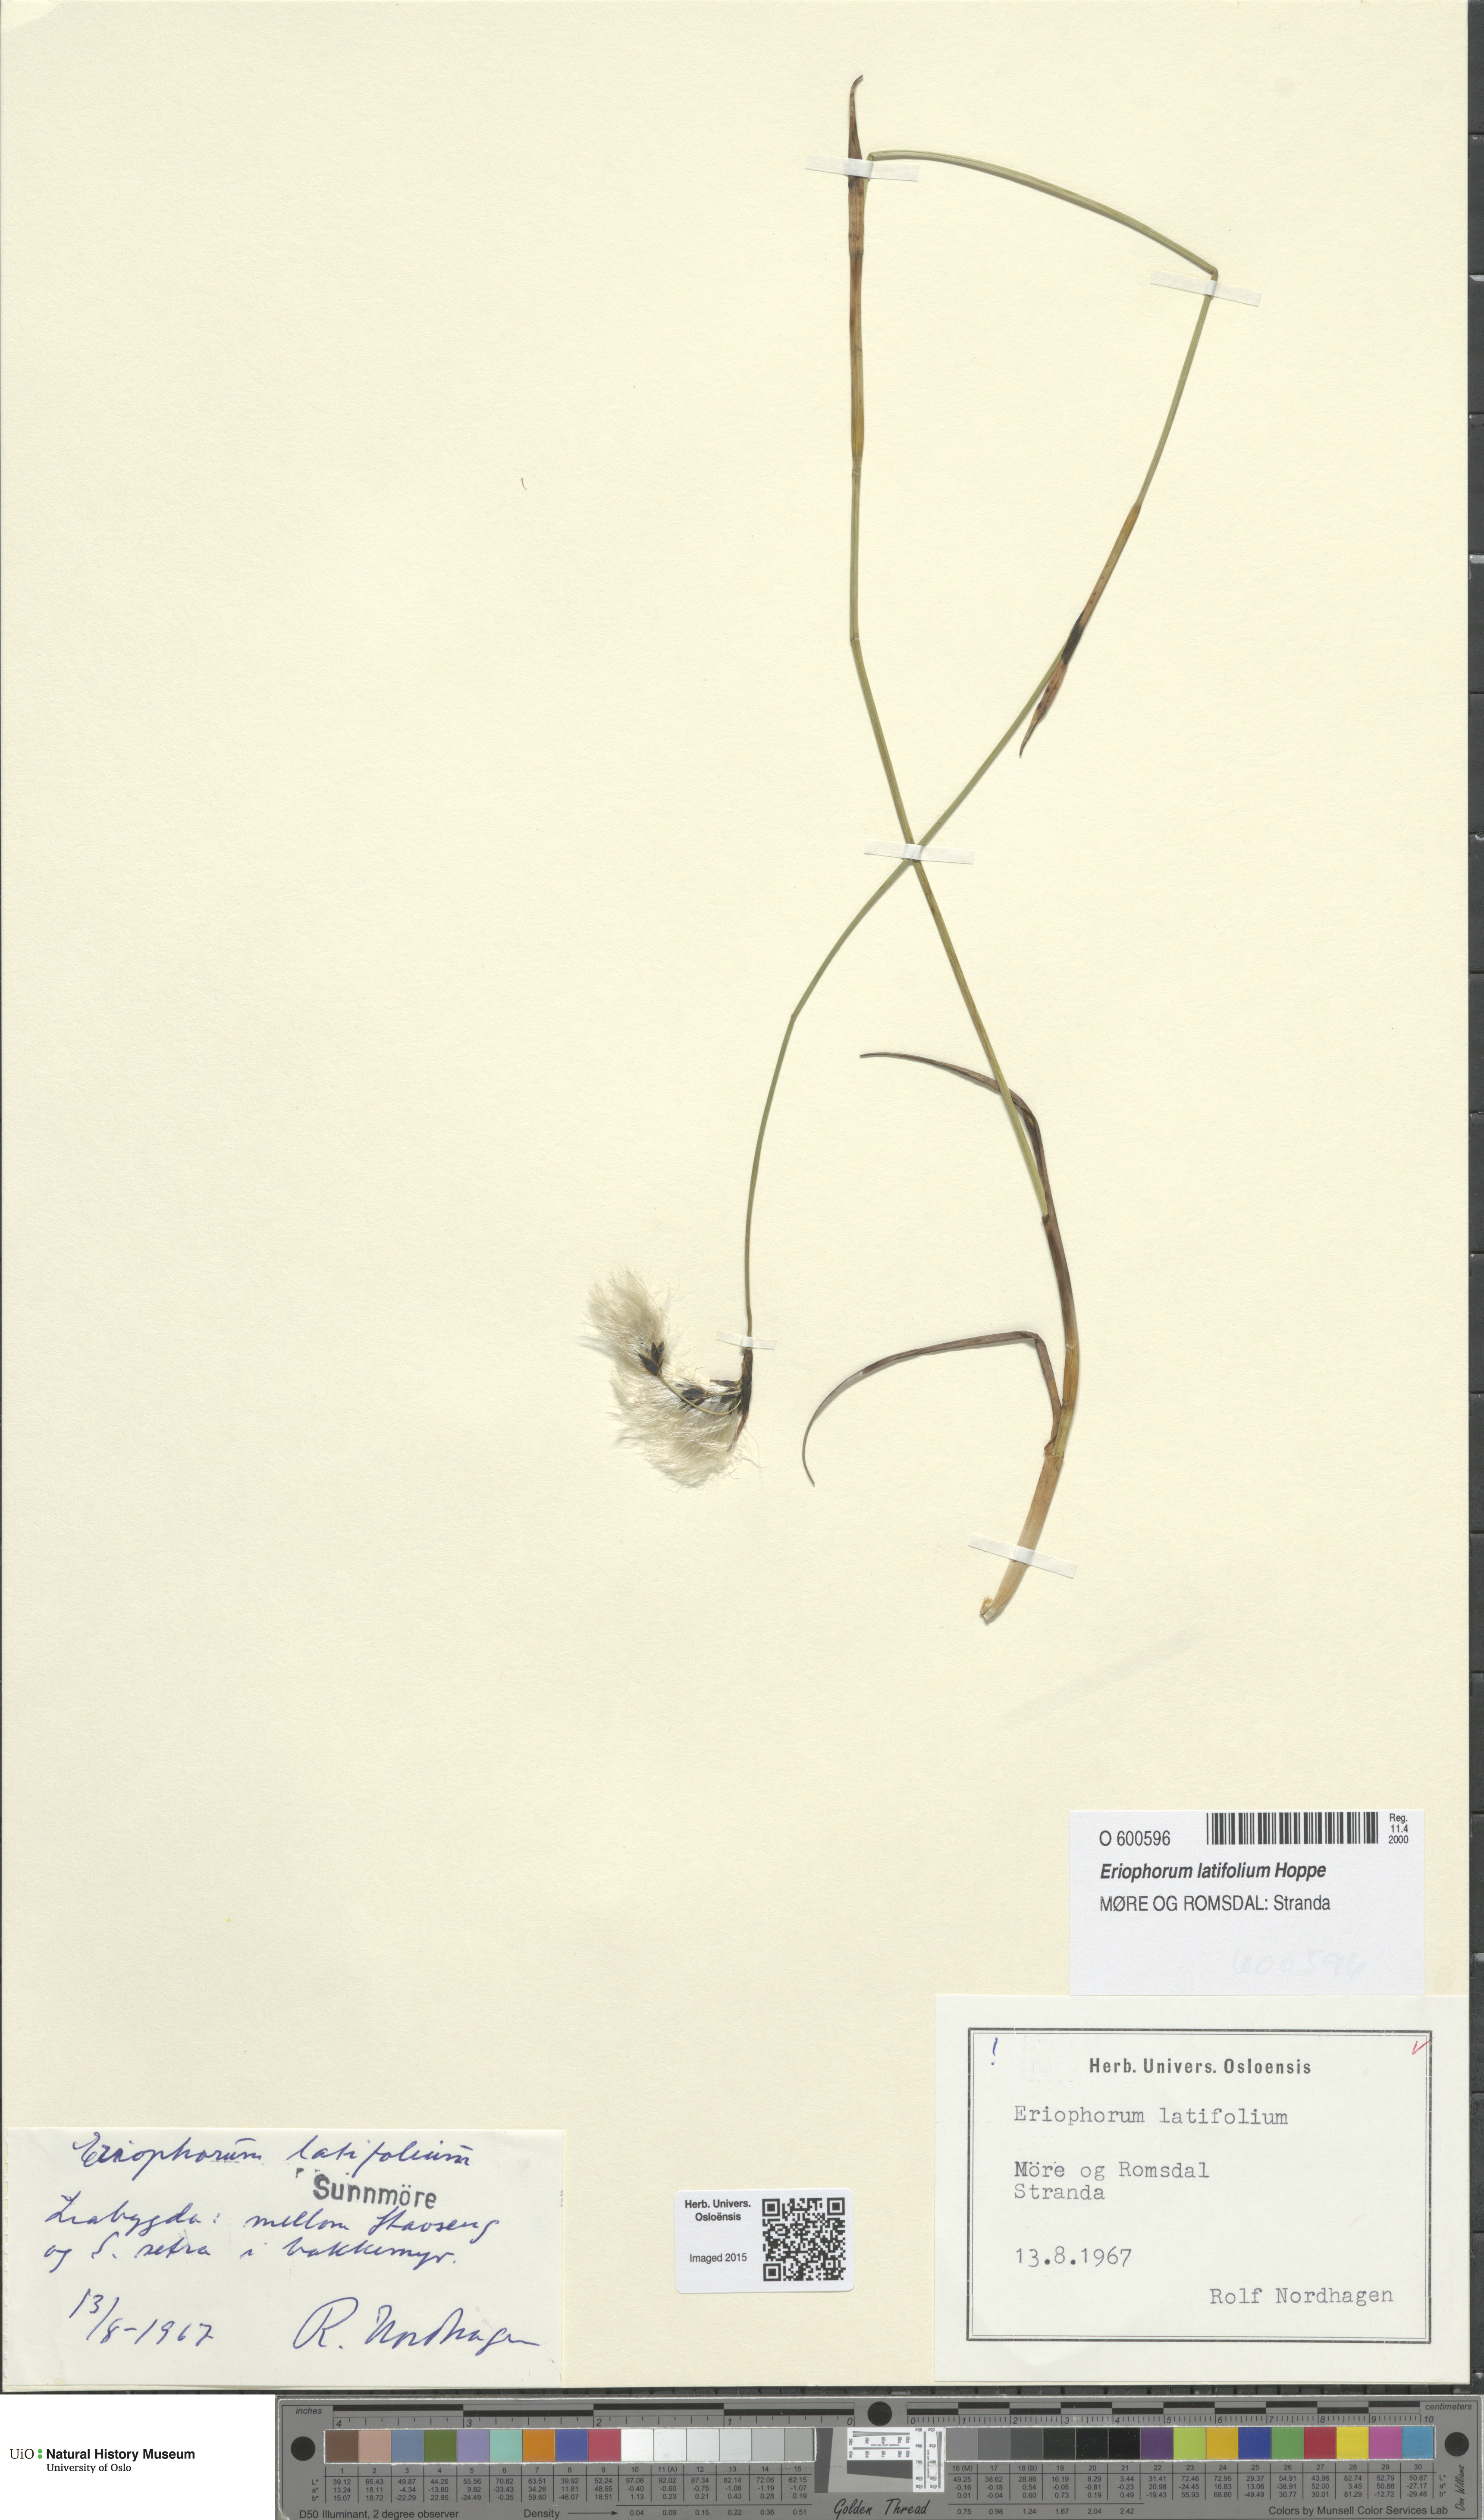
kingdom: Plantae
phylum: Tracheophyta
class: Liliopsida
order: Poales
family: Cyperaceae
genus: Eriophorum
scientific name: Eriophorum latifolium
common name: Broad-leaved cottongrass
